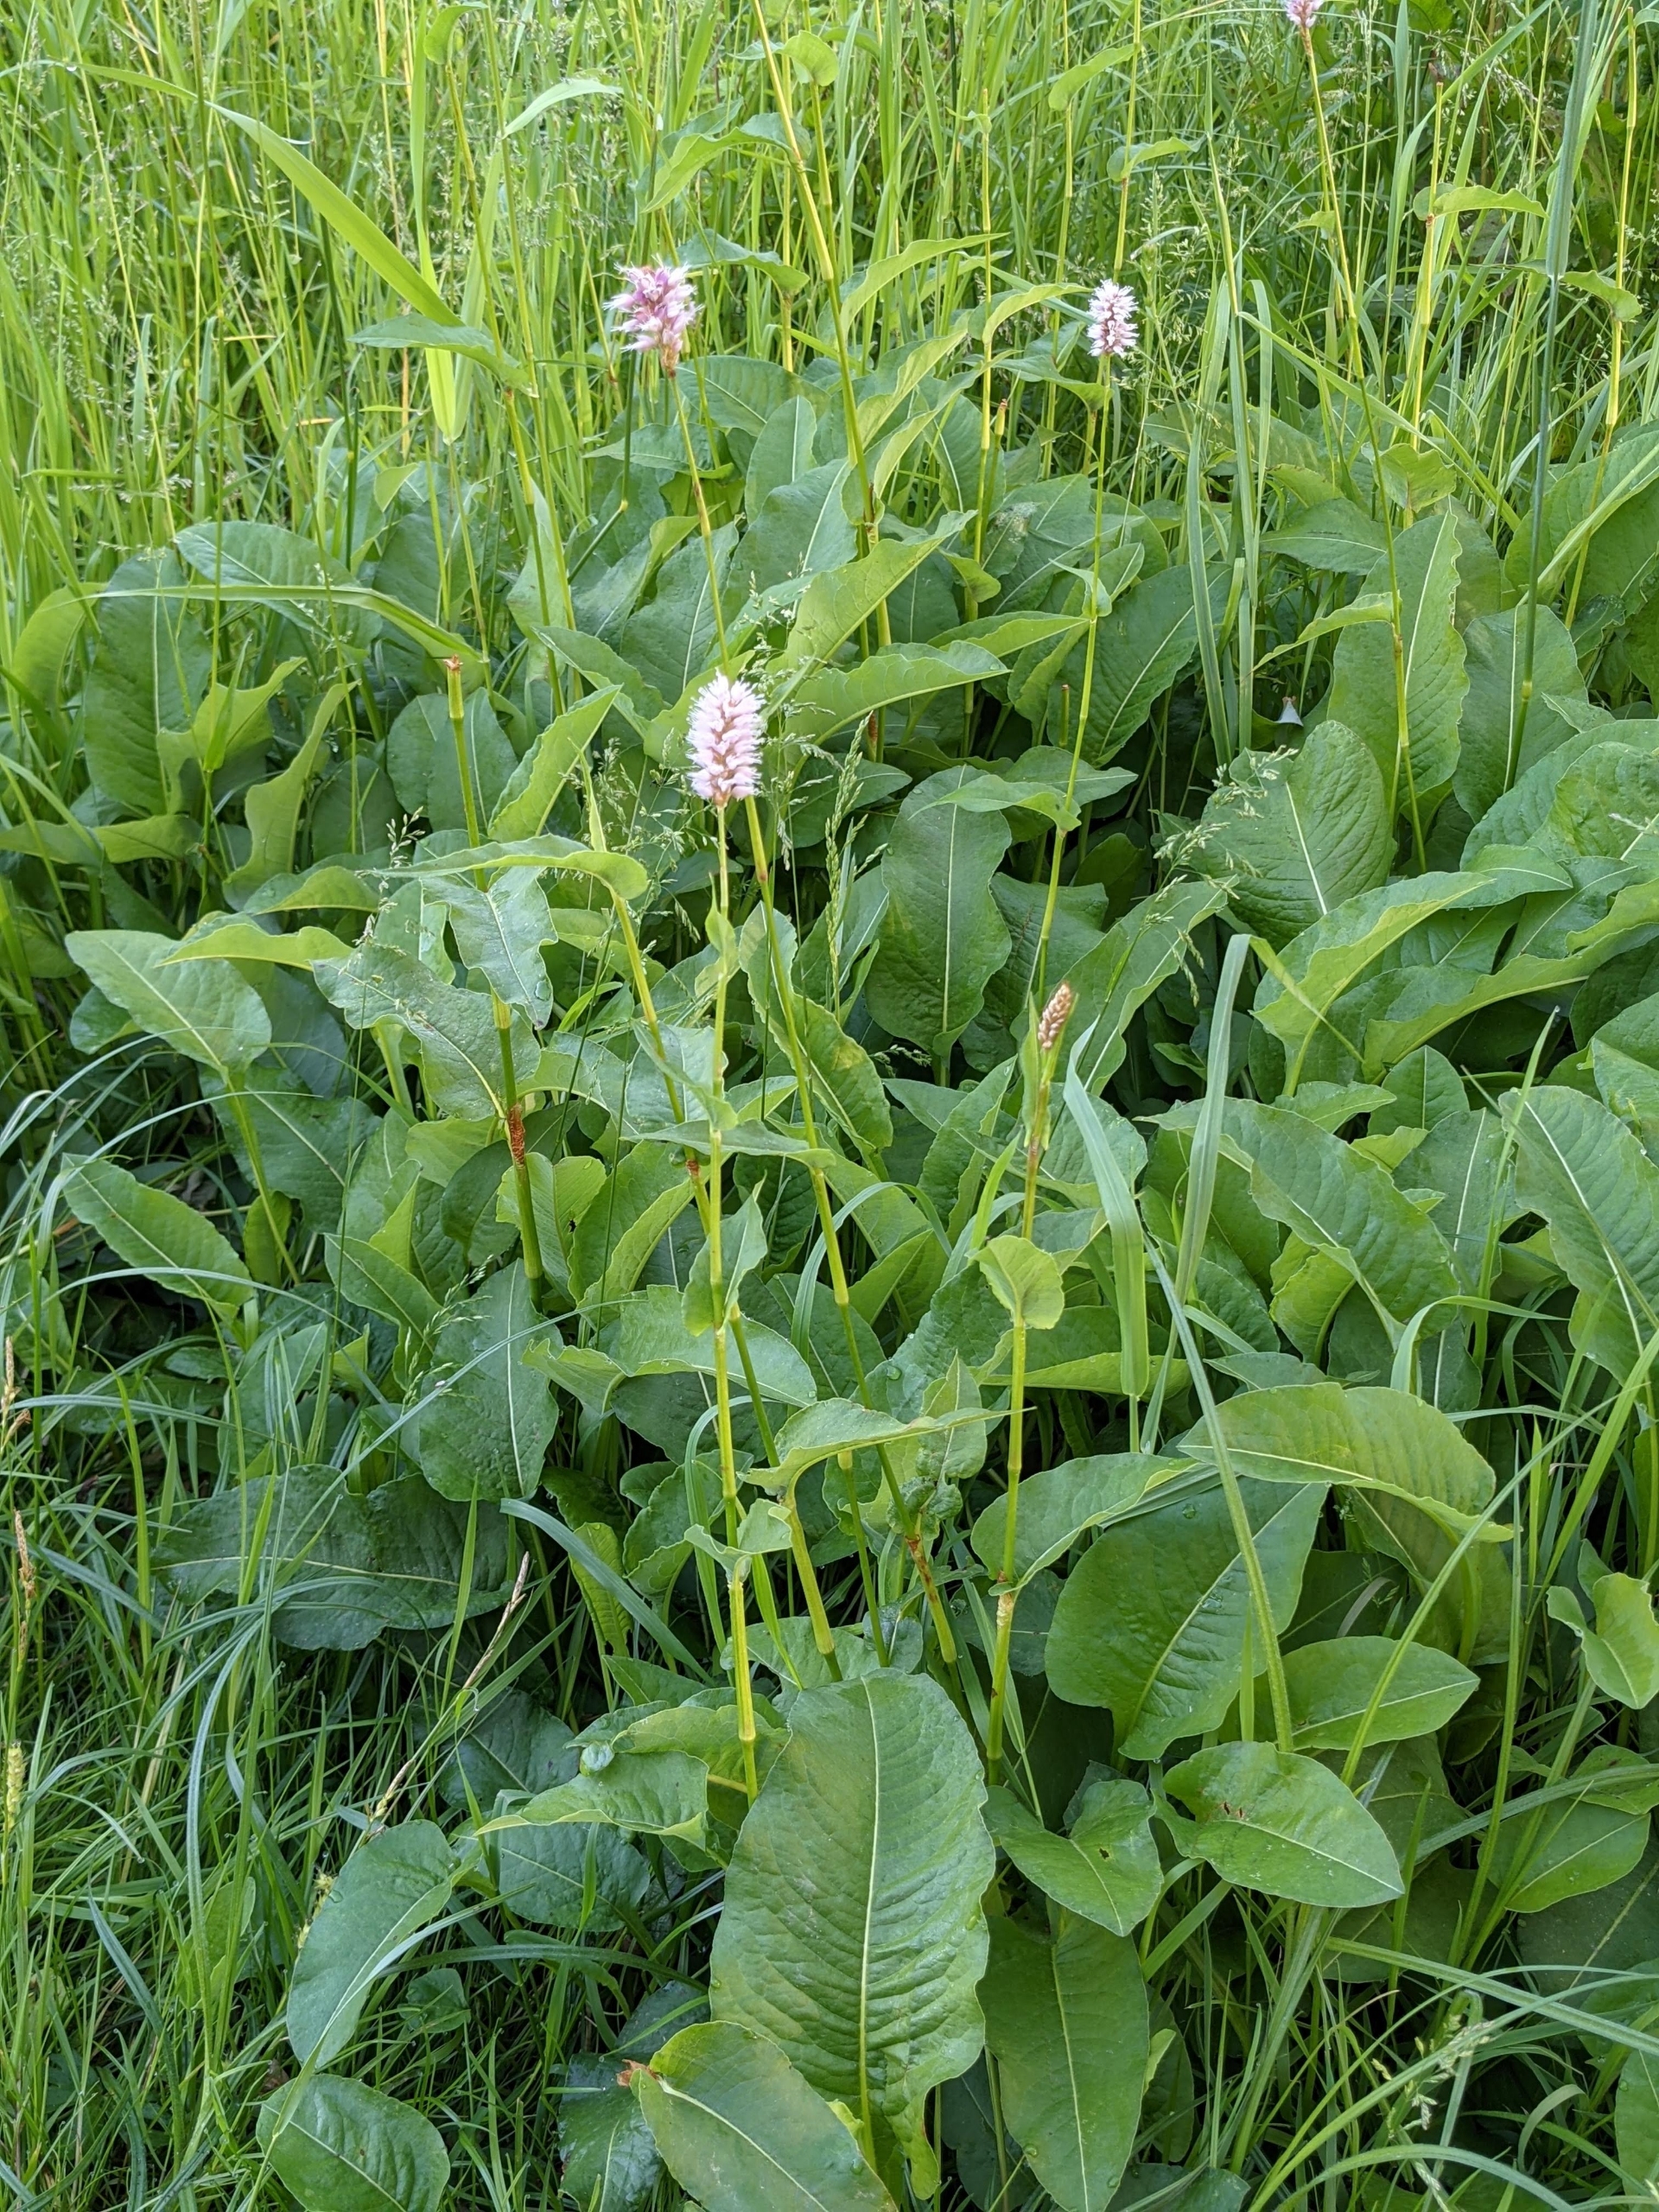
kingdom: Plantae
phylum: Tracheophyta
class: Magnoliopsida
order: Caryophyllales
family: Polygonaceae
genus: Bistorta
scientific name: Bistorta officinalis
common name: Slangeurt
